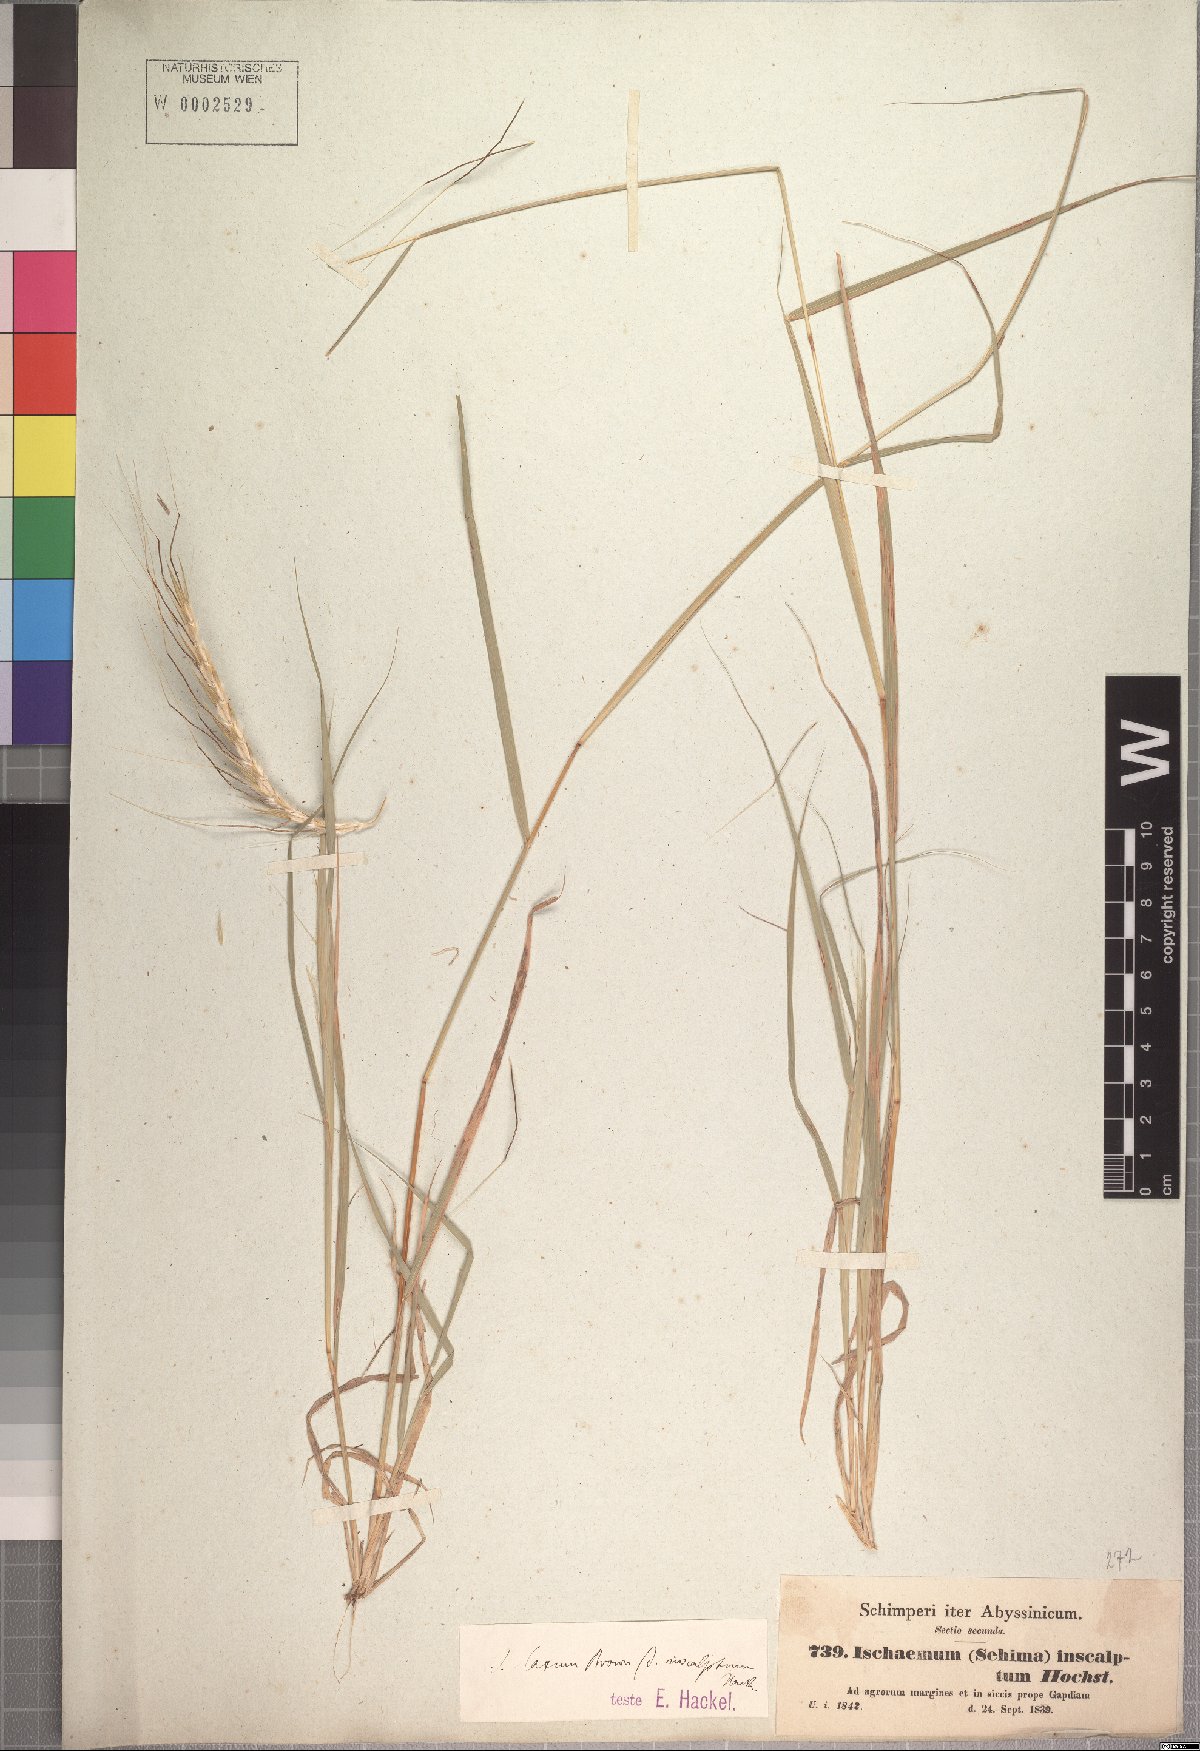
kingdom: Plantae
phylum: Tracheophyta
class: Liliopsida
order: Poales
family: Poaceae
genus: Sehima
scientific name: Sehima ischaemoides
